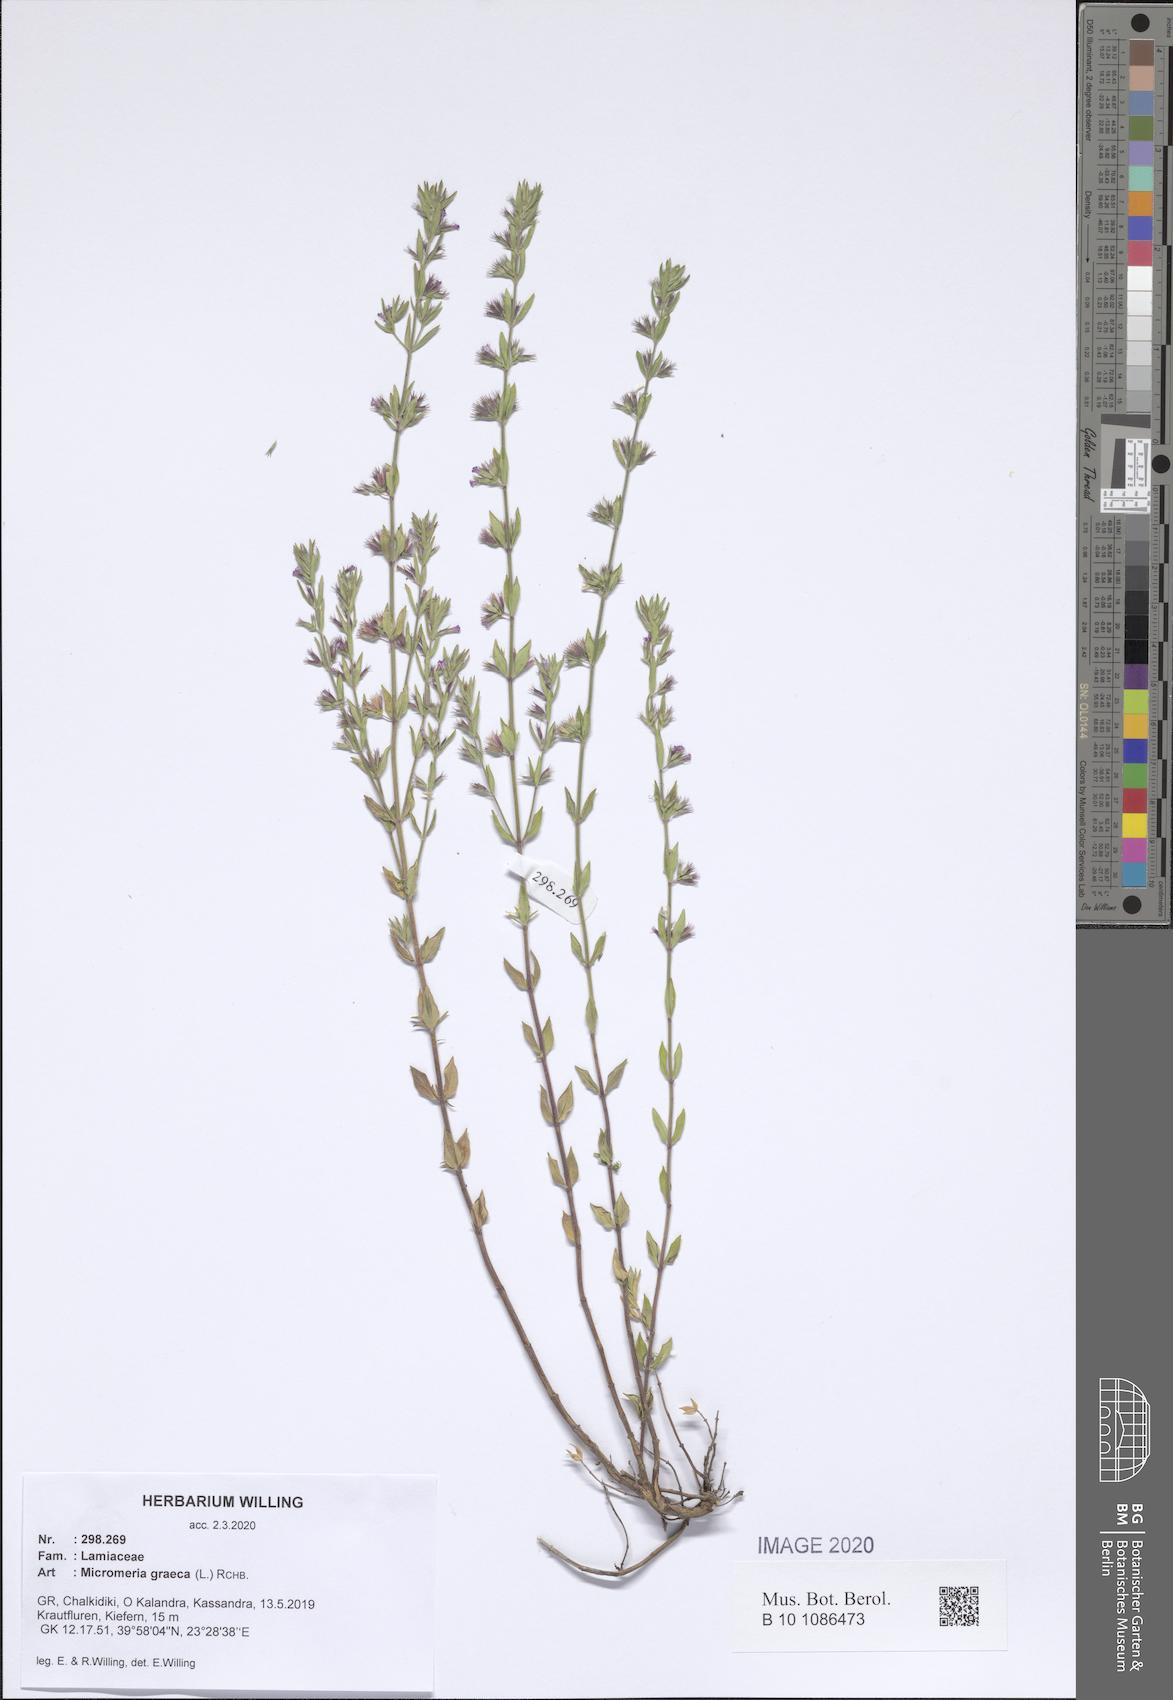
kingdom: Plantae
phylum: Tracheophyta
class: Magnoliopsida
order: Lamiales
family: Lamiaceae
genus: Micromeria
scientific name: Micromeria graeca
